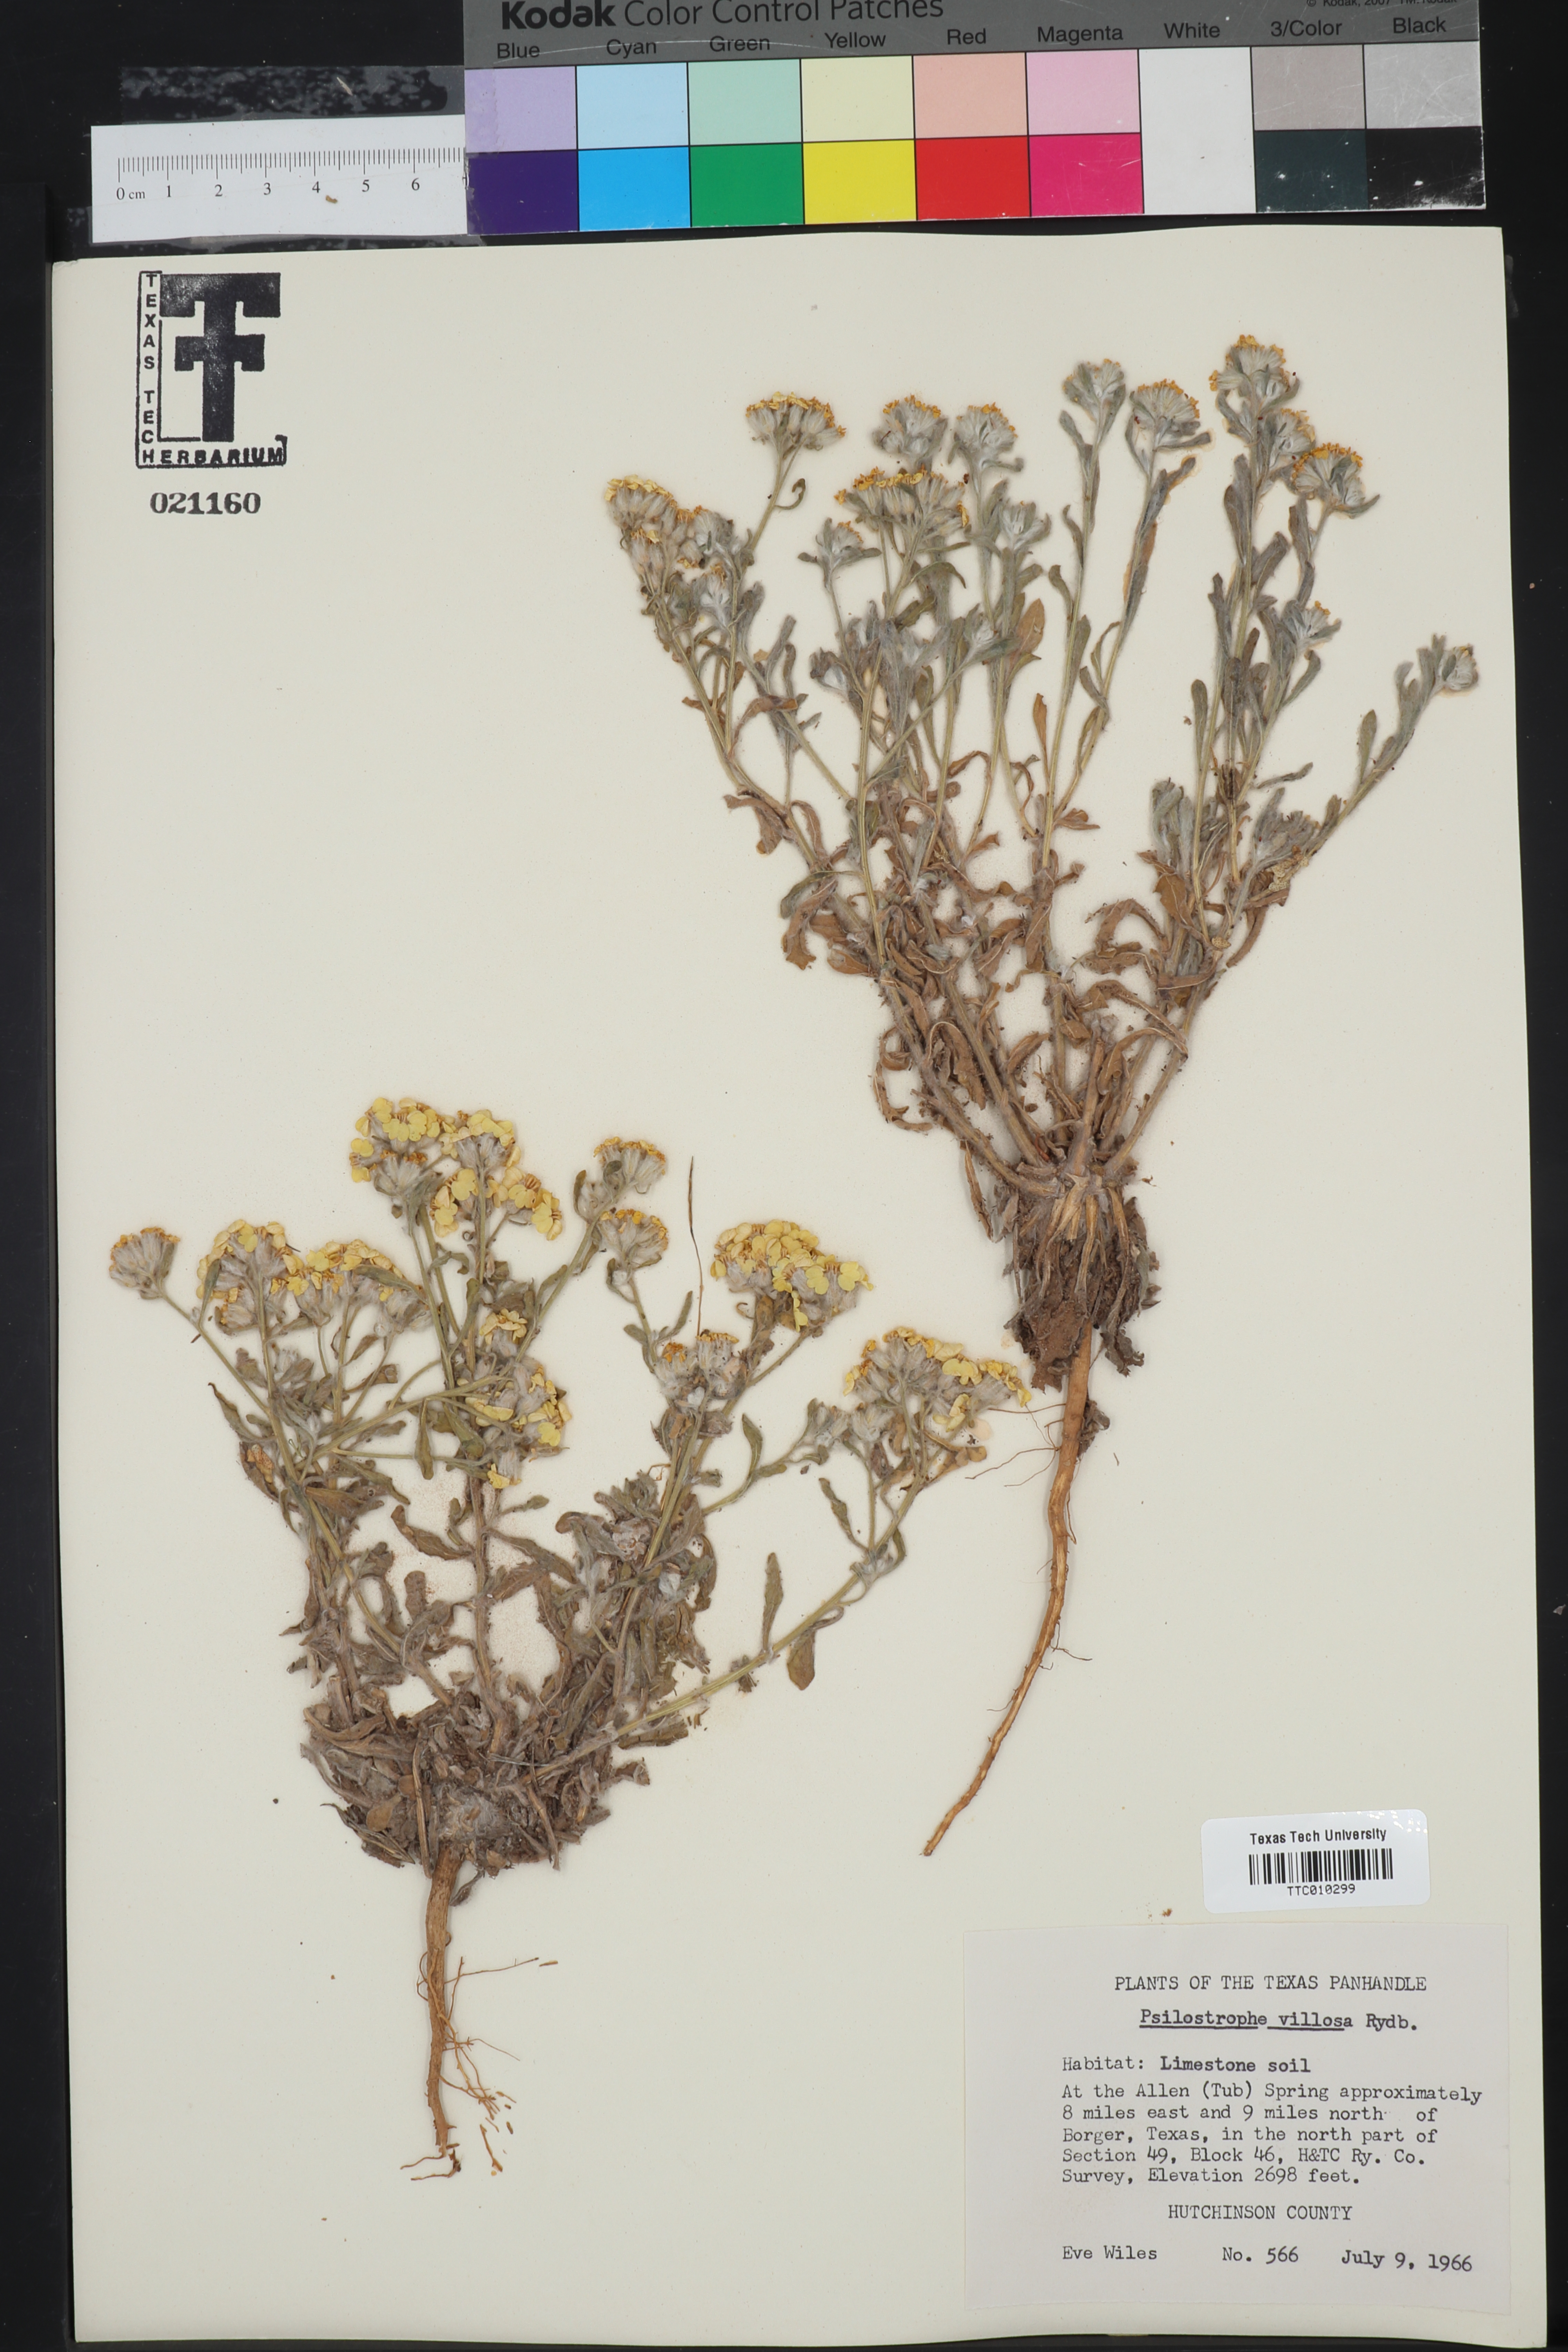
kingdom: Plantae
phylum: Tracheophyta
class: Magnoliopsida
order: Asterales
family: Asteraceae
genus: Psilostrophe
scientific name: Psilostrophe villosa
